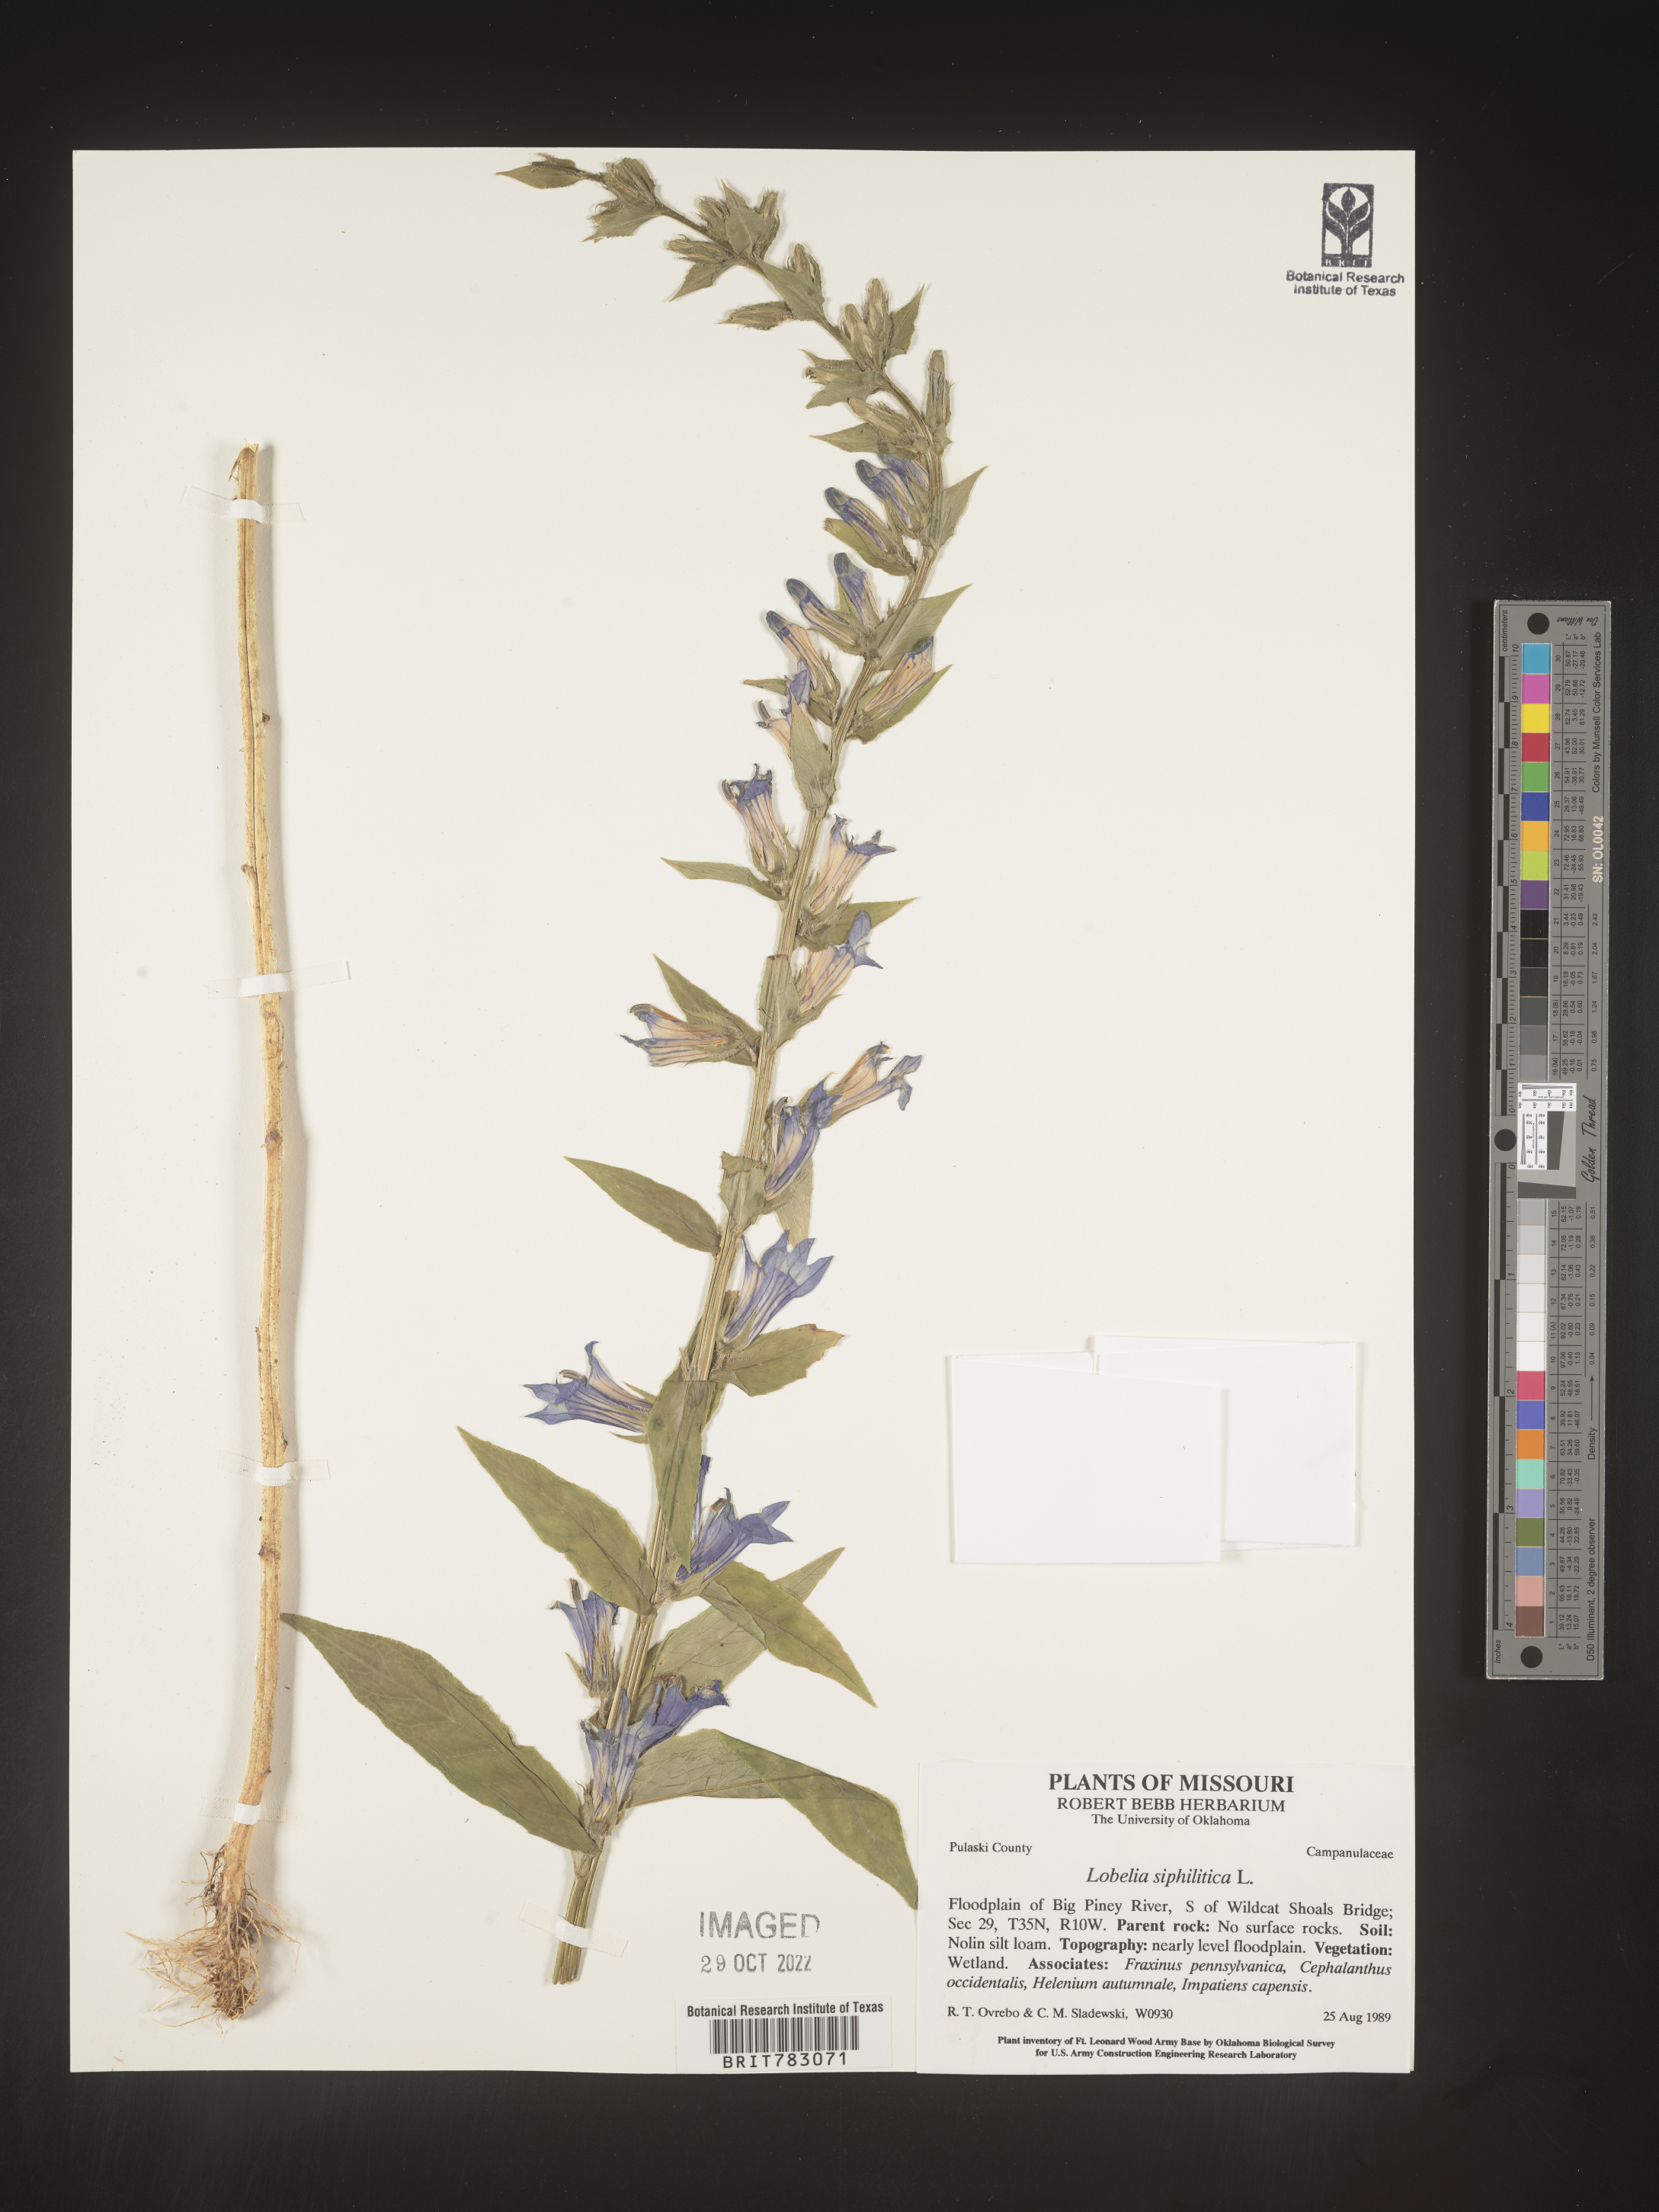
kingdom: Plantae
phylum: Tracheophyta
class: Magnoliopsida
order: Asterales
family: Campanulaceae
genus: Lobelia
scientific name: Lobelia siphilitica
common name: Great lobelia
